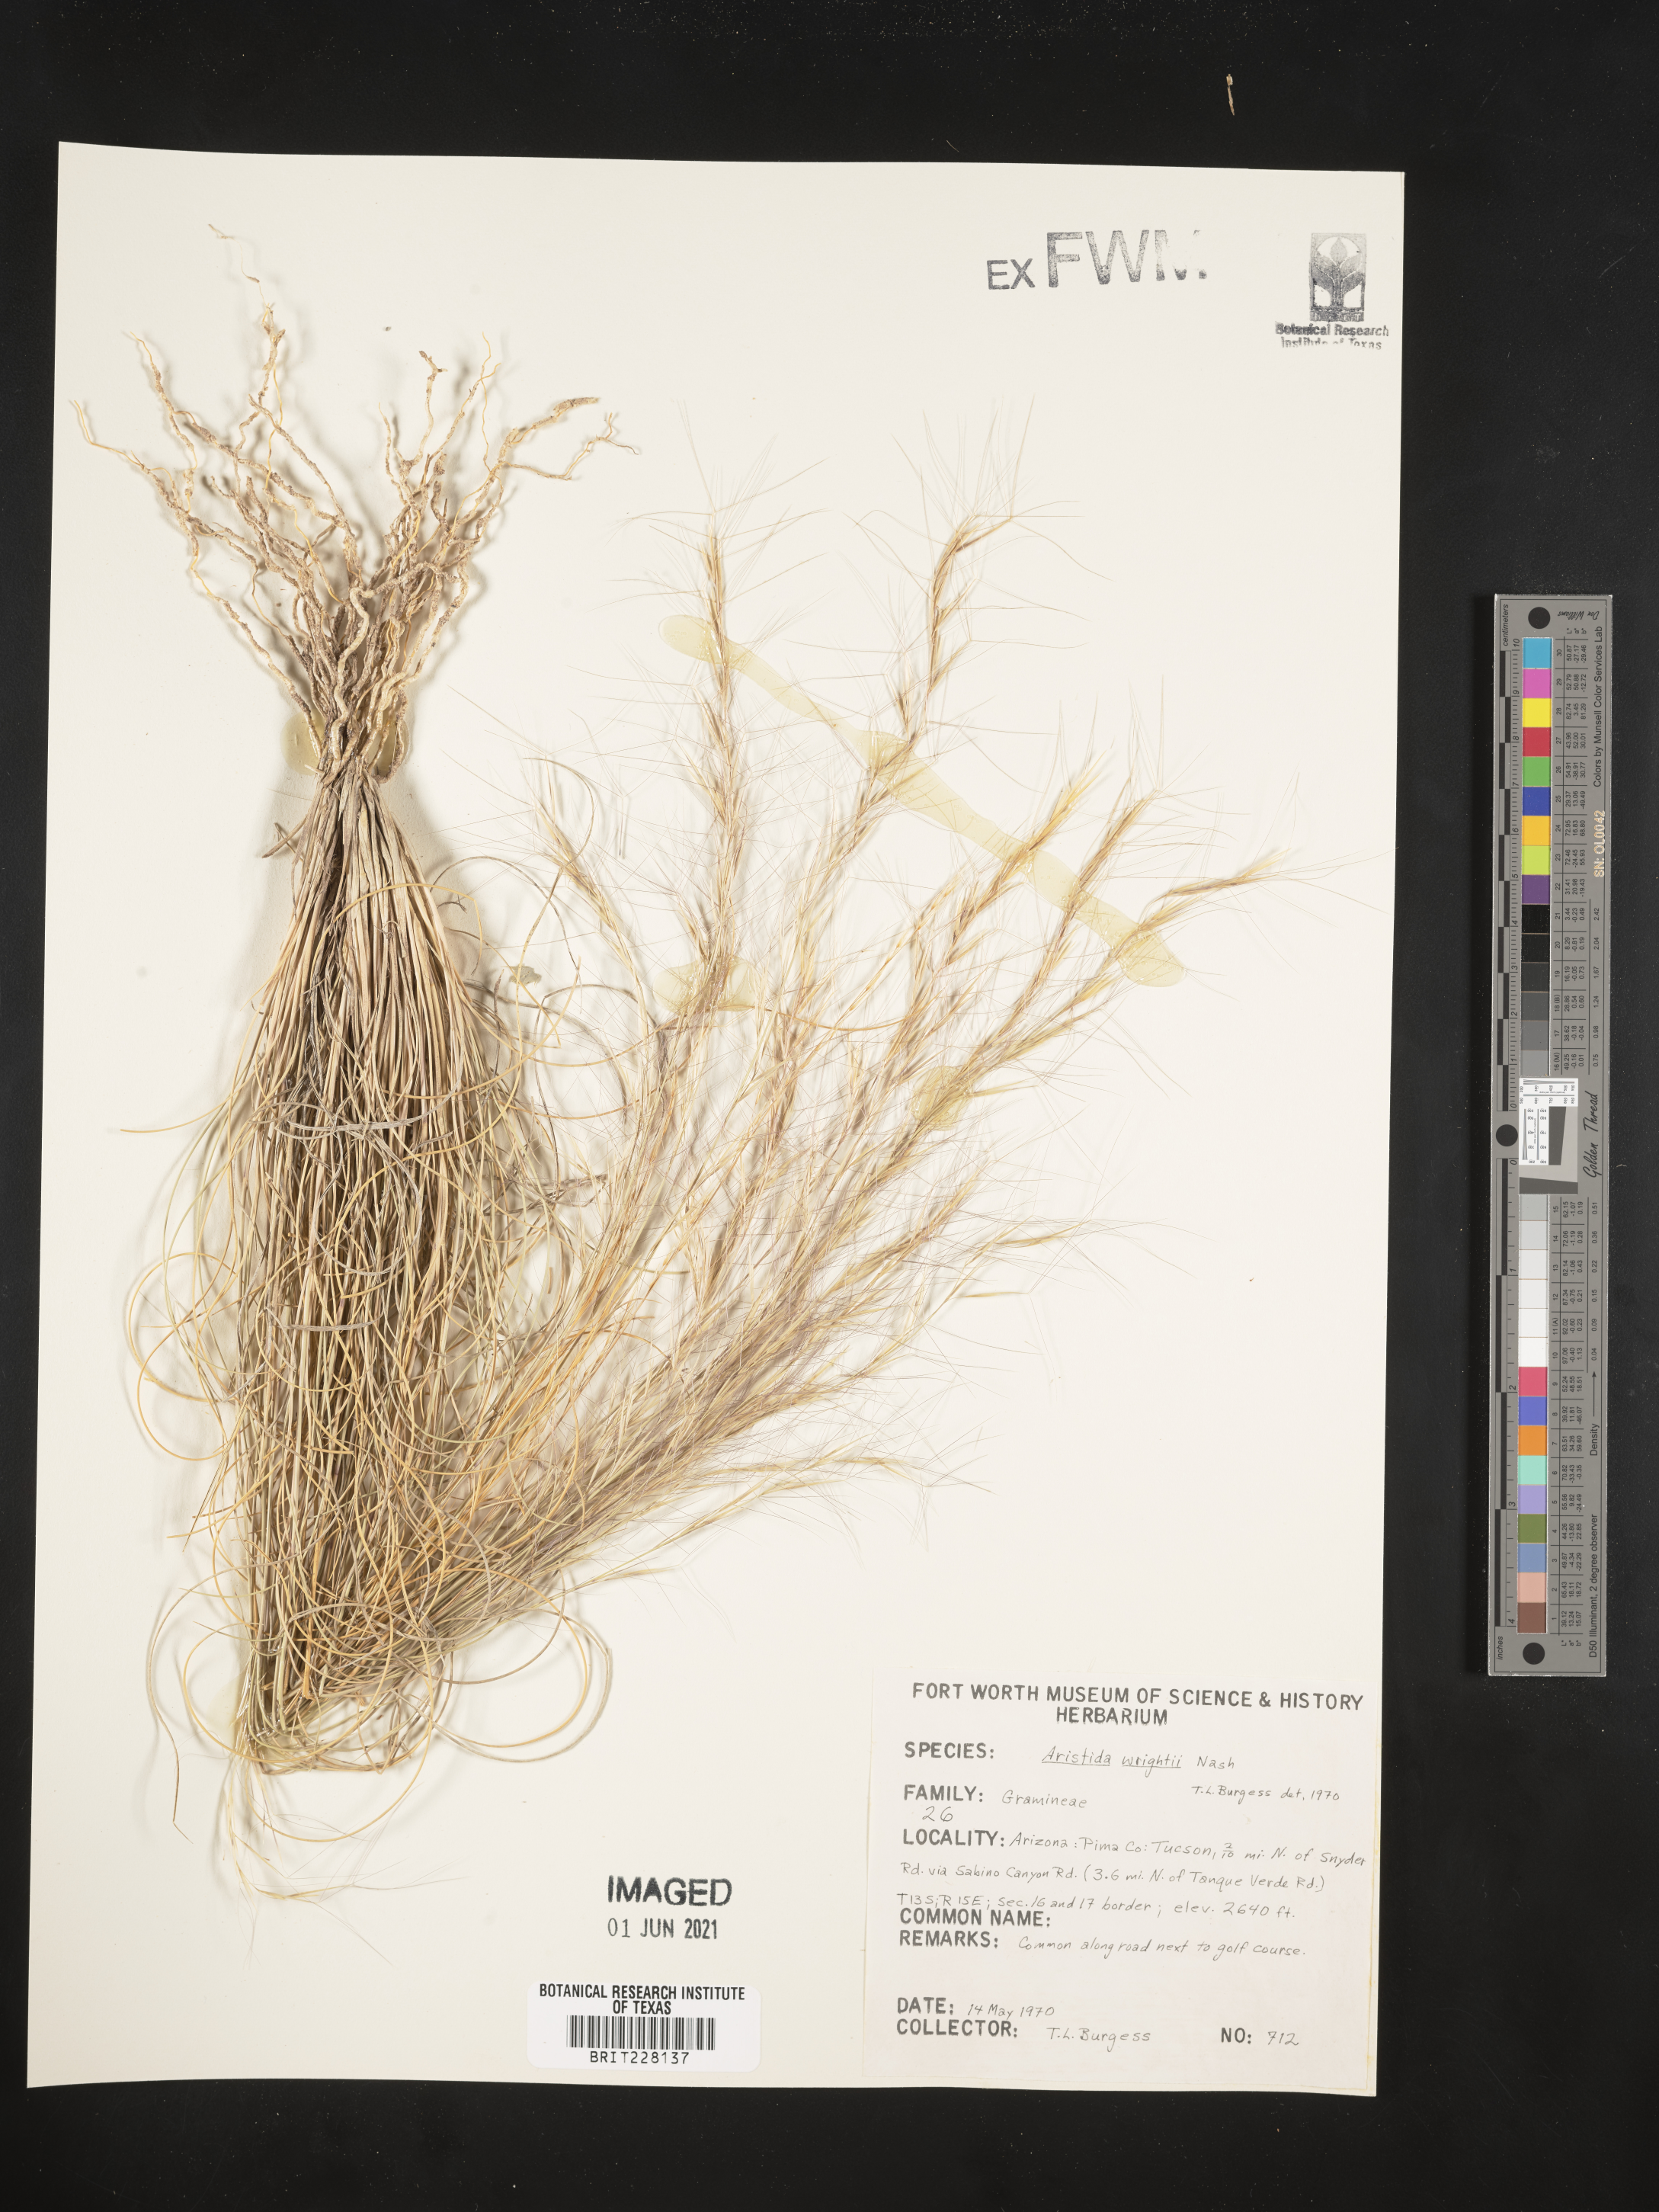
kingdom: Plantae
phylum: Tracheophyta
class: Liliopsida
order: Poales
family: Poaceae
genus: Aristida
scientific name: Aristida wrightii
